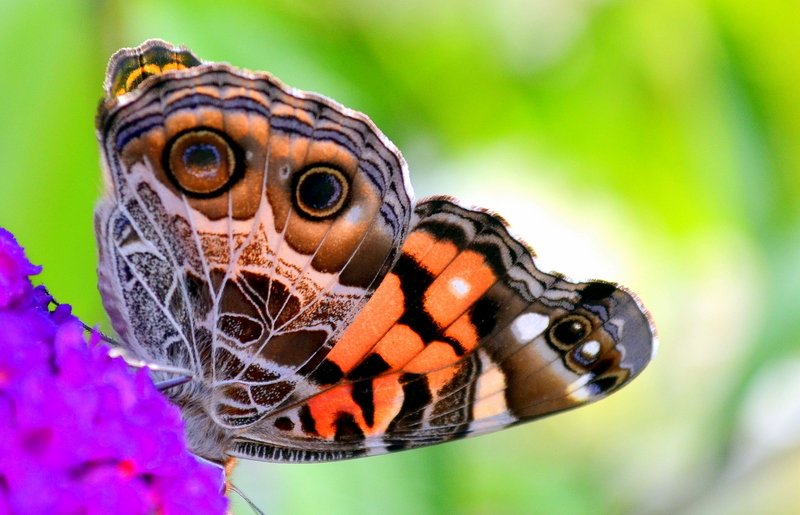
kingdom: Animalia
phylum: Arthropoda
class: Insecta
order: Lepidoptera
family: Nymphalidae
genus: Vanessa
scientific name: Vanessa virginiensis
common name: American Lady
